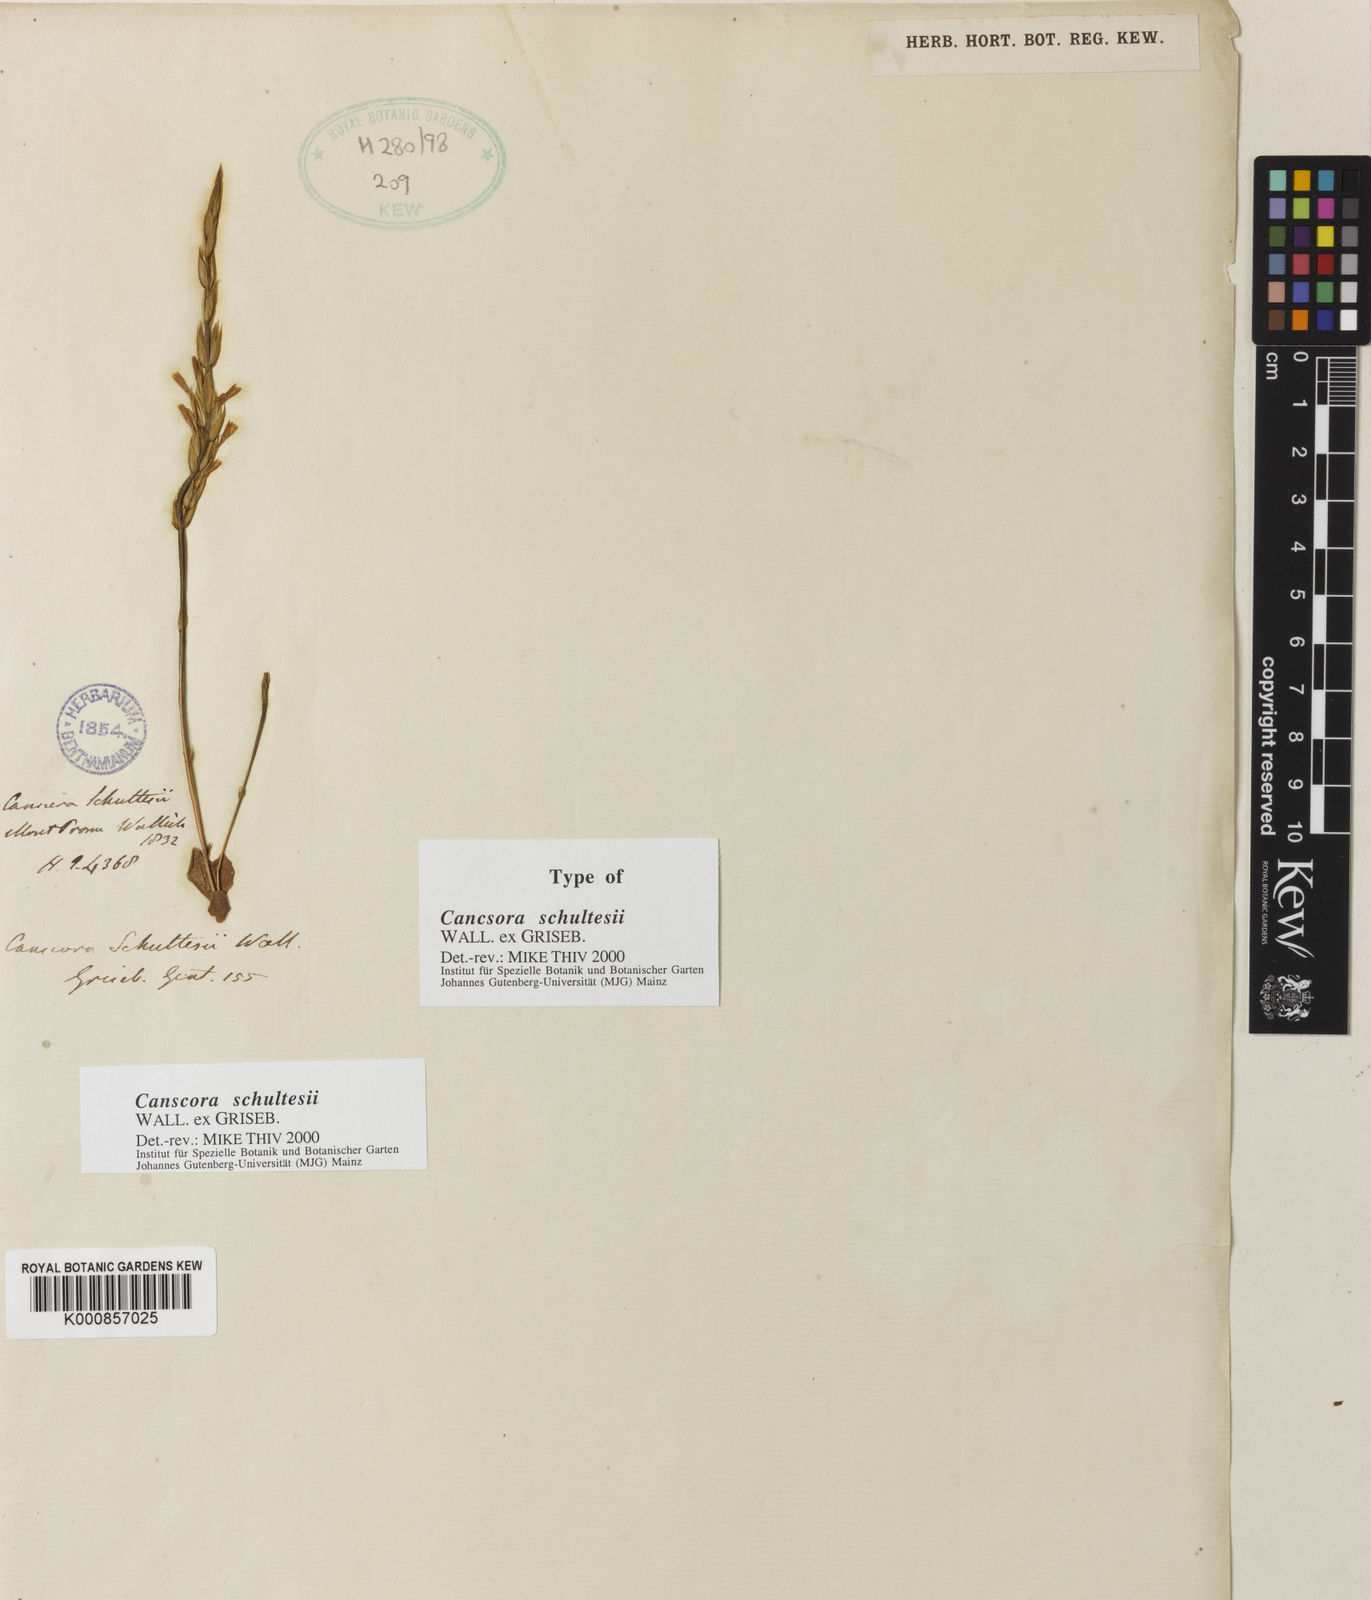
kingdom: Plantae
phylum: Tracheophyta
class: Magnoliopsida
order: Gentianales
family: Gentianaceae
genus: Canscora
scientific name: Canscora schultesii
